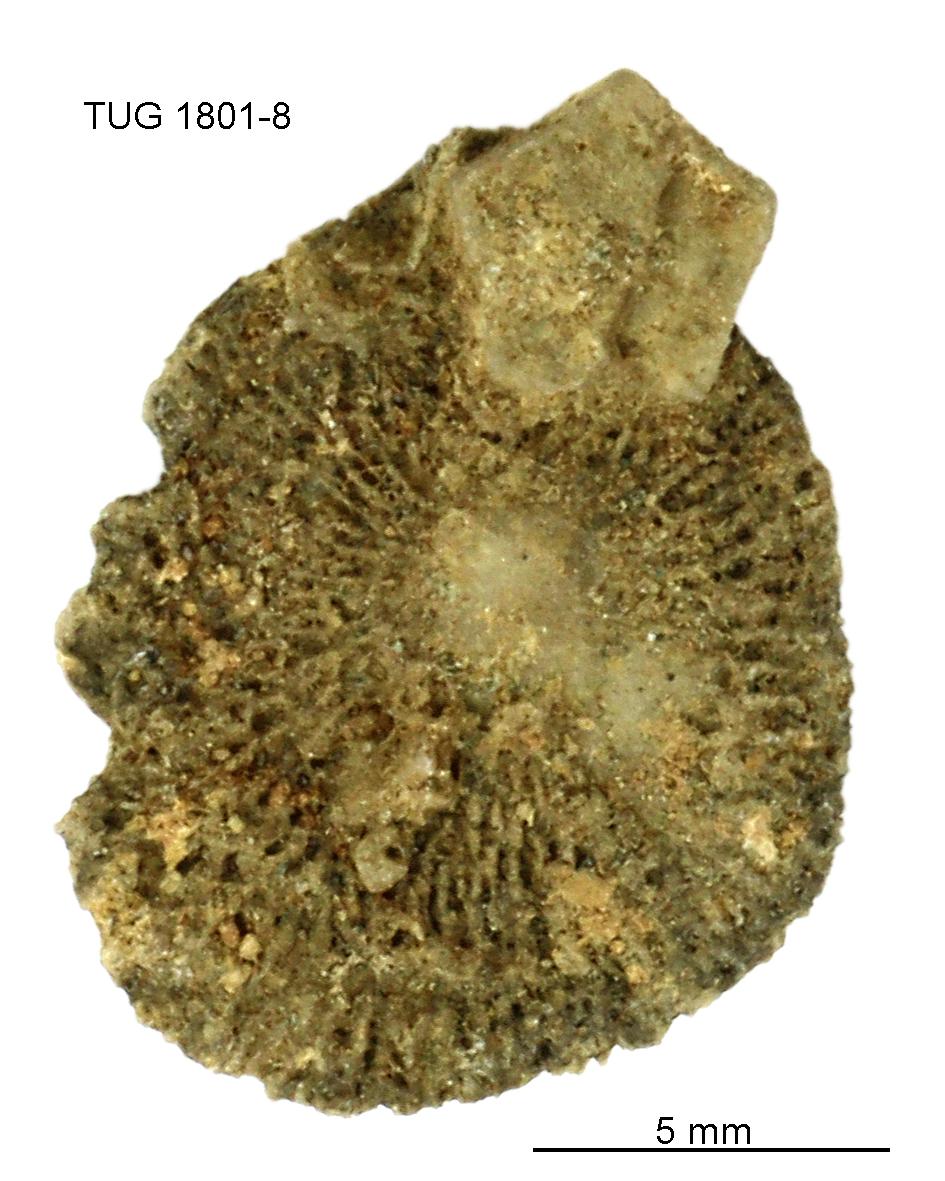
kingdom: Animalia
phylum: Brachiopoda
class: Craniata
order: Craniida
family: Craniidae
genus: Philhedra
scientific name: Philhedra
